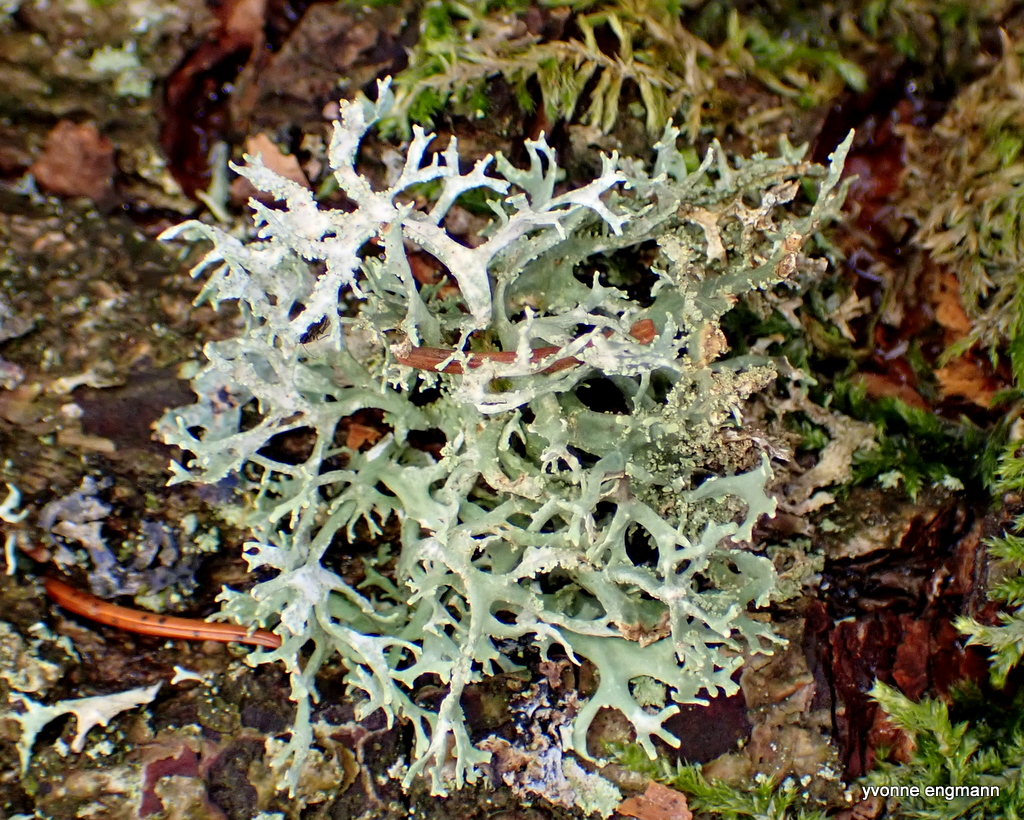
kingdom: Fungi
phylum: Ascomycota
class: Lecanoromycetes
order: Lecanorales
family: Parmeliaceae
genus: Evernia
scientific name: Evernia prunastri
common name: almindelig slåenlav
